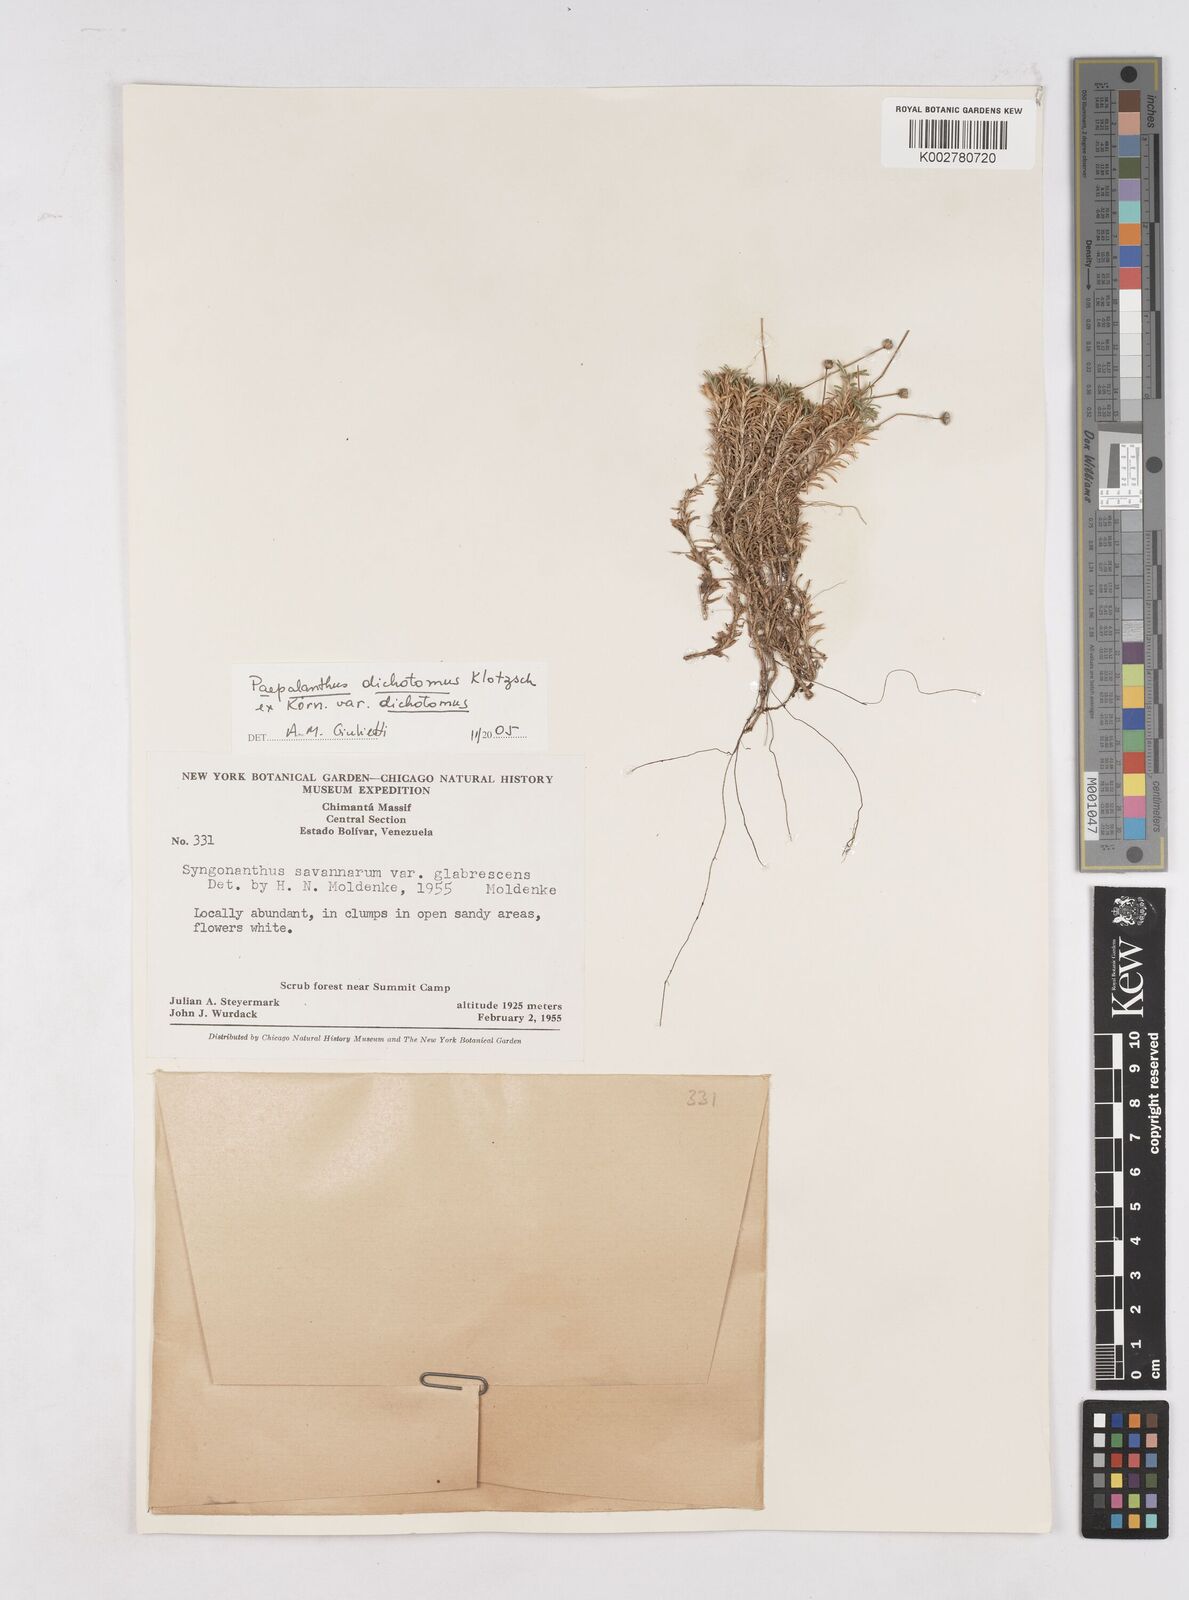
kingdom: Plantae
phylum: Tracheophyta
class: Liliopsida
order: Poales
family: Eriocaulaceae
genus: Paepalanthus
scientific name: Paepalanthus dichotomus
